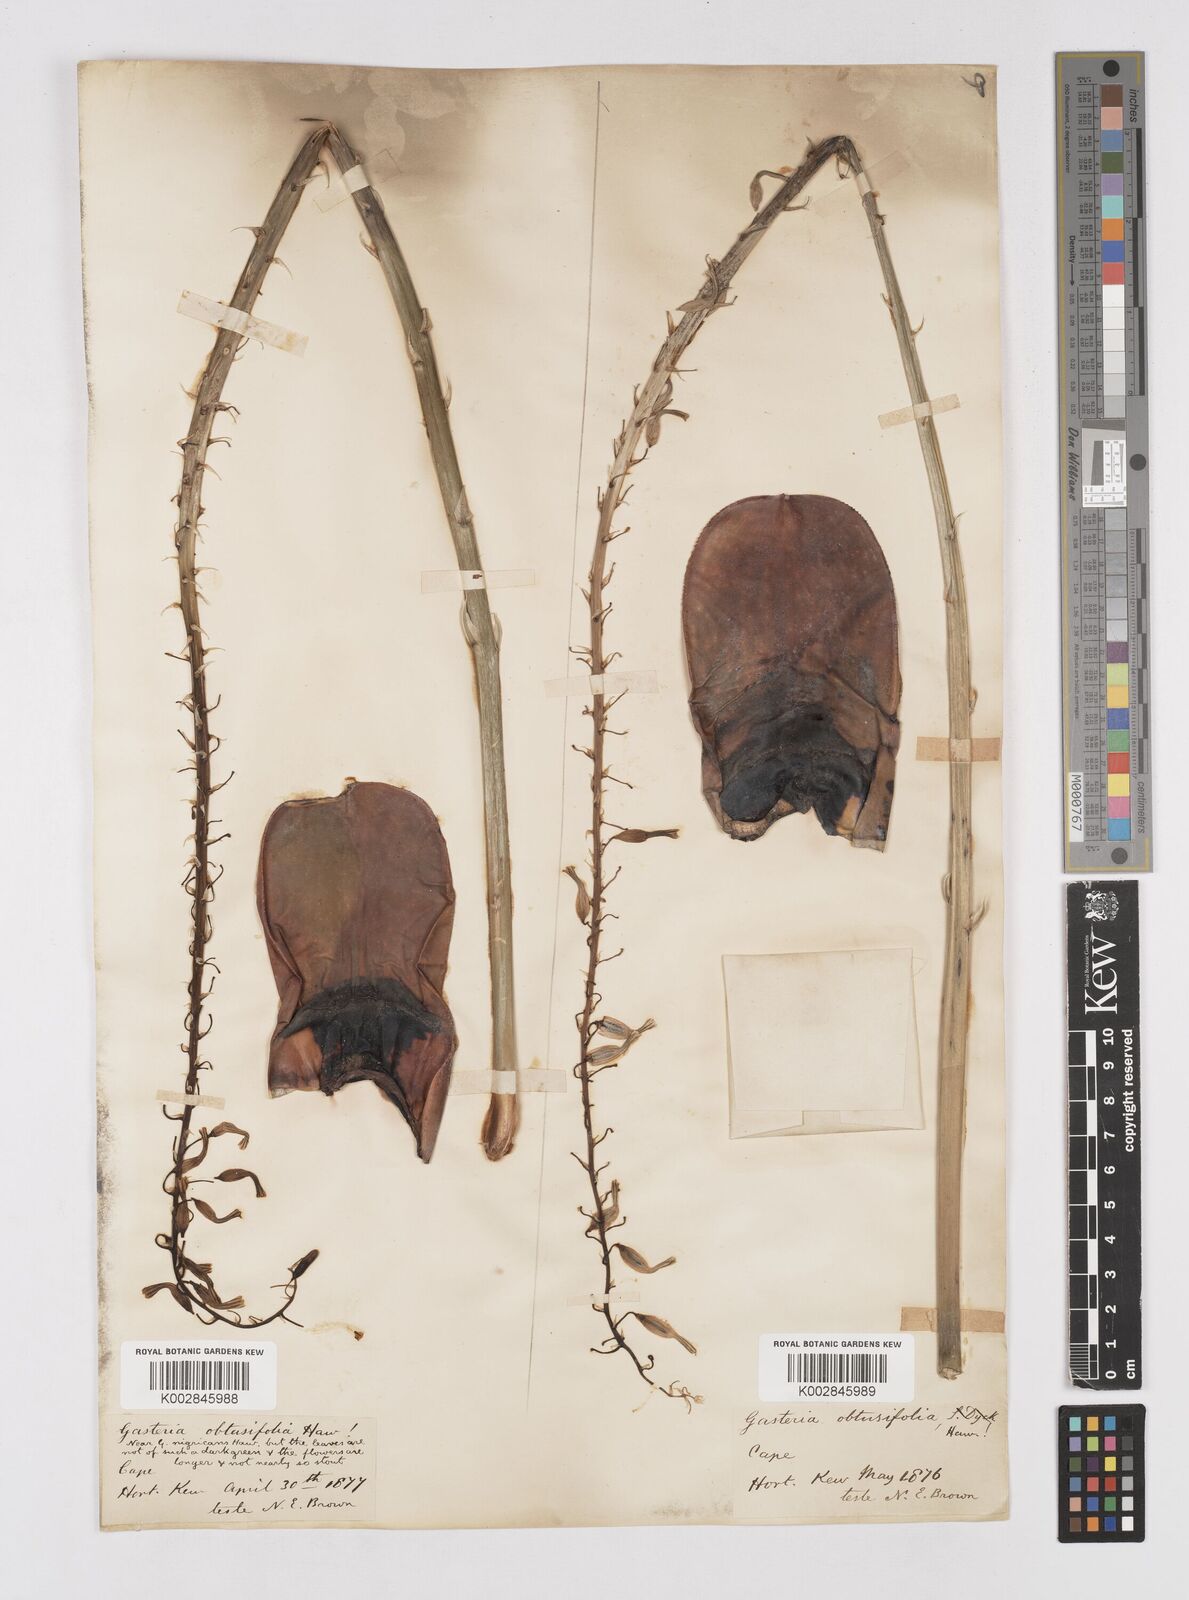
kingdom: Plantae
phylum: Tracheophyta
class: Liliopsida
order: Asparagales
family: Asphodelaceae
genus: Gasteria
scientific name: Gasteria disticha
